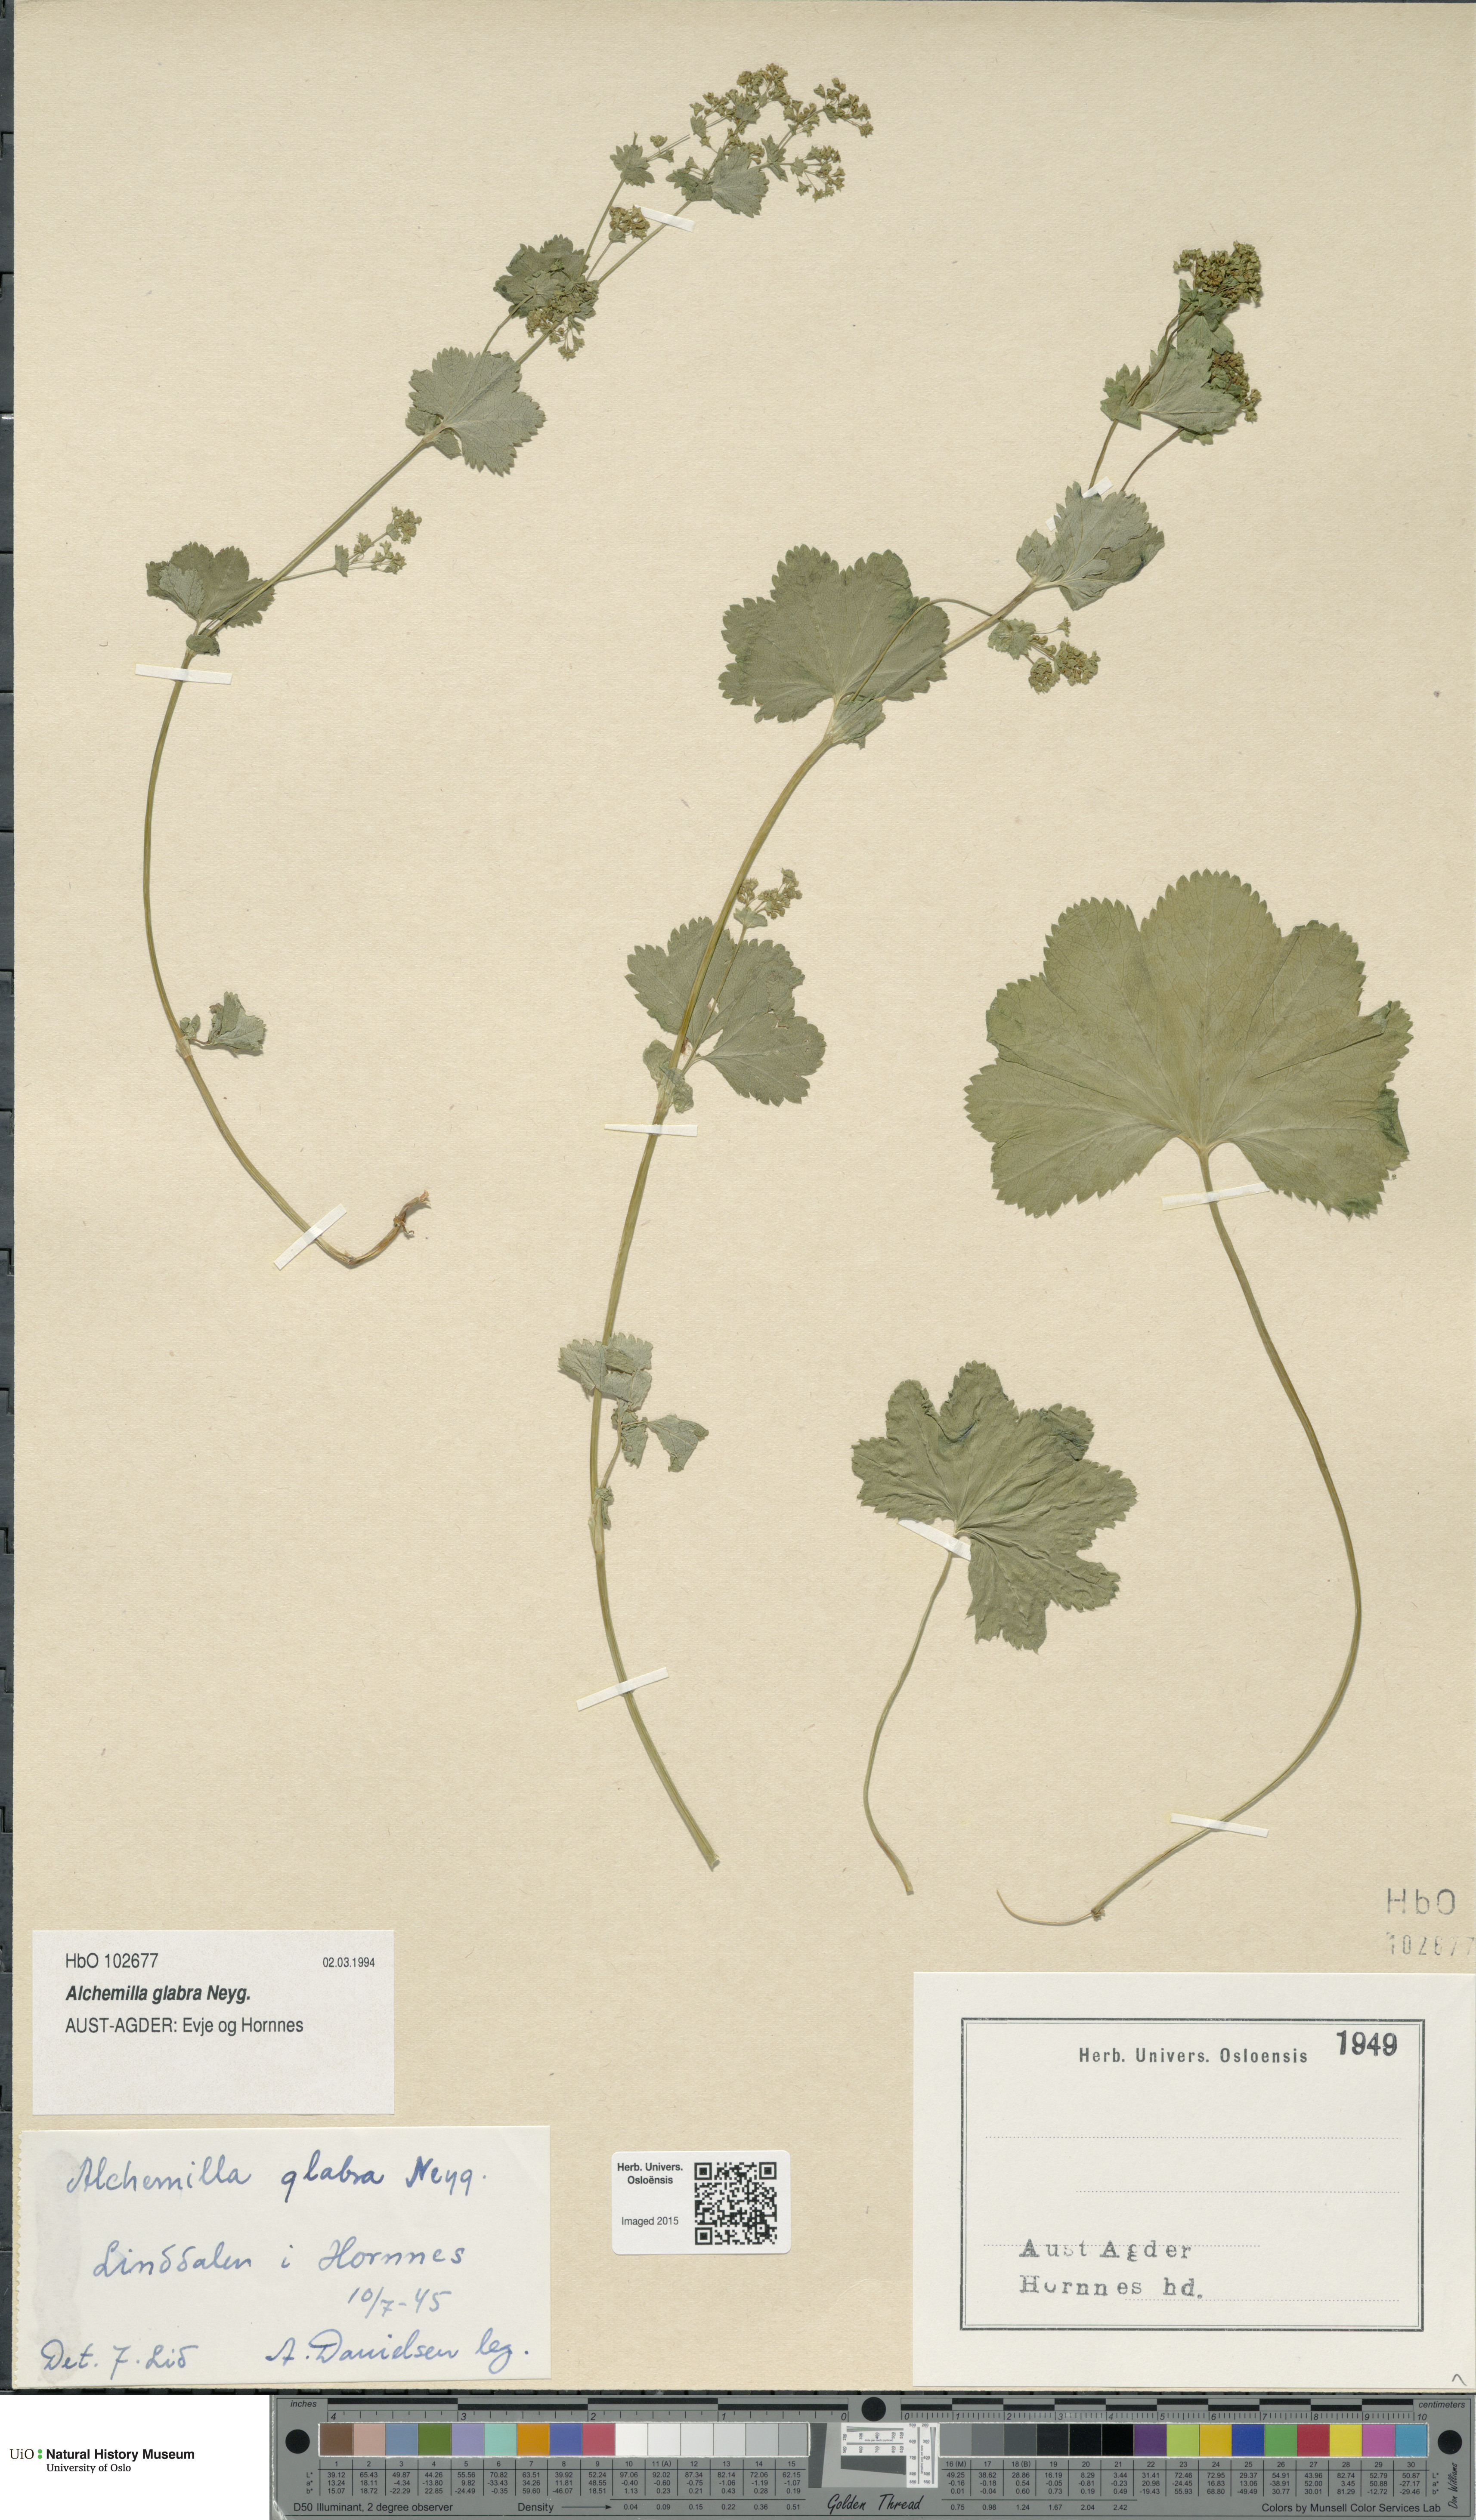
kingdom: Plantae
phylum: Tracheophyta
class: Magnoliopsida
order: Rosales
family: Rosaceae
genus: Alchemilla
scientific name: Alchemilla glabra
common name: Smooth lady's-mantle
